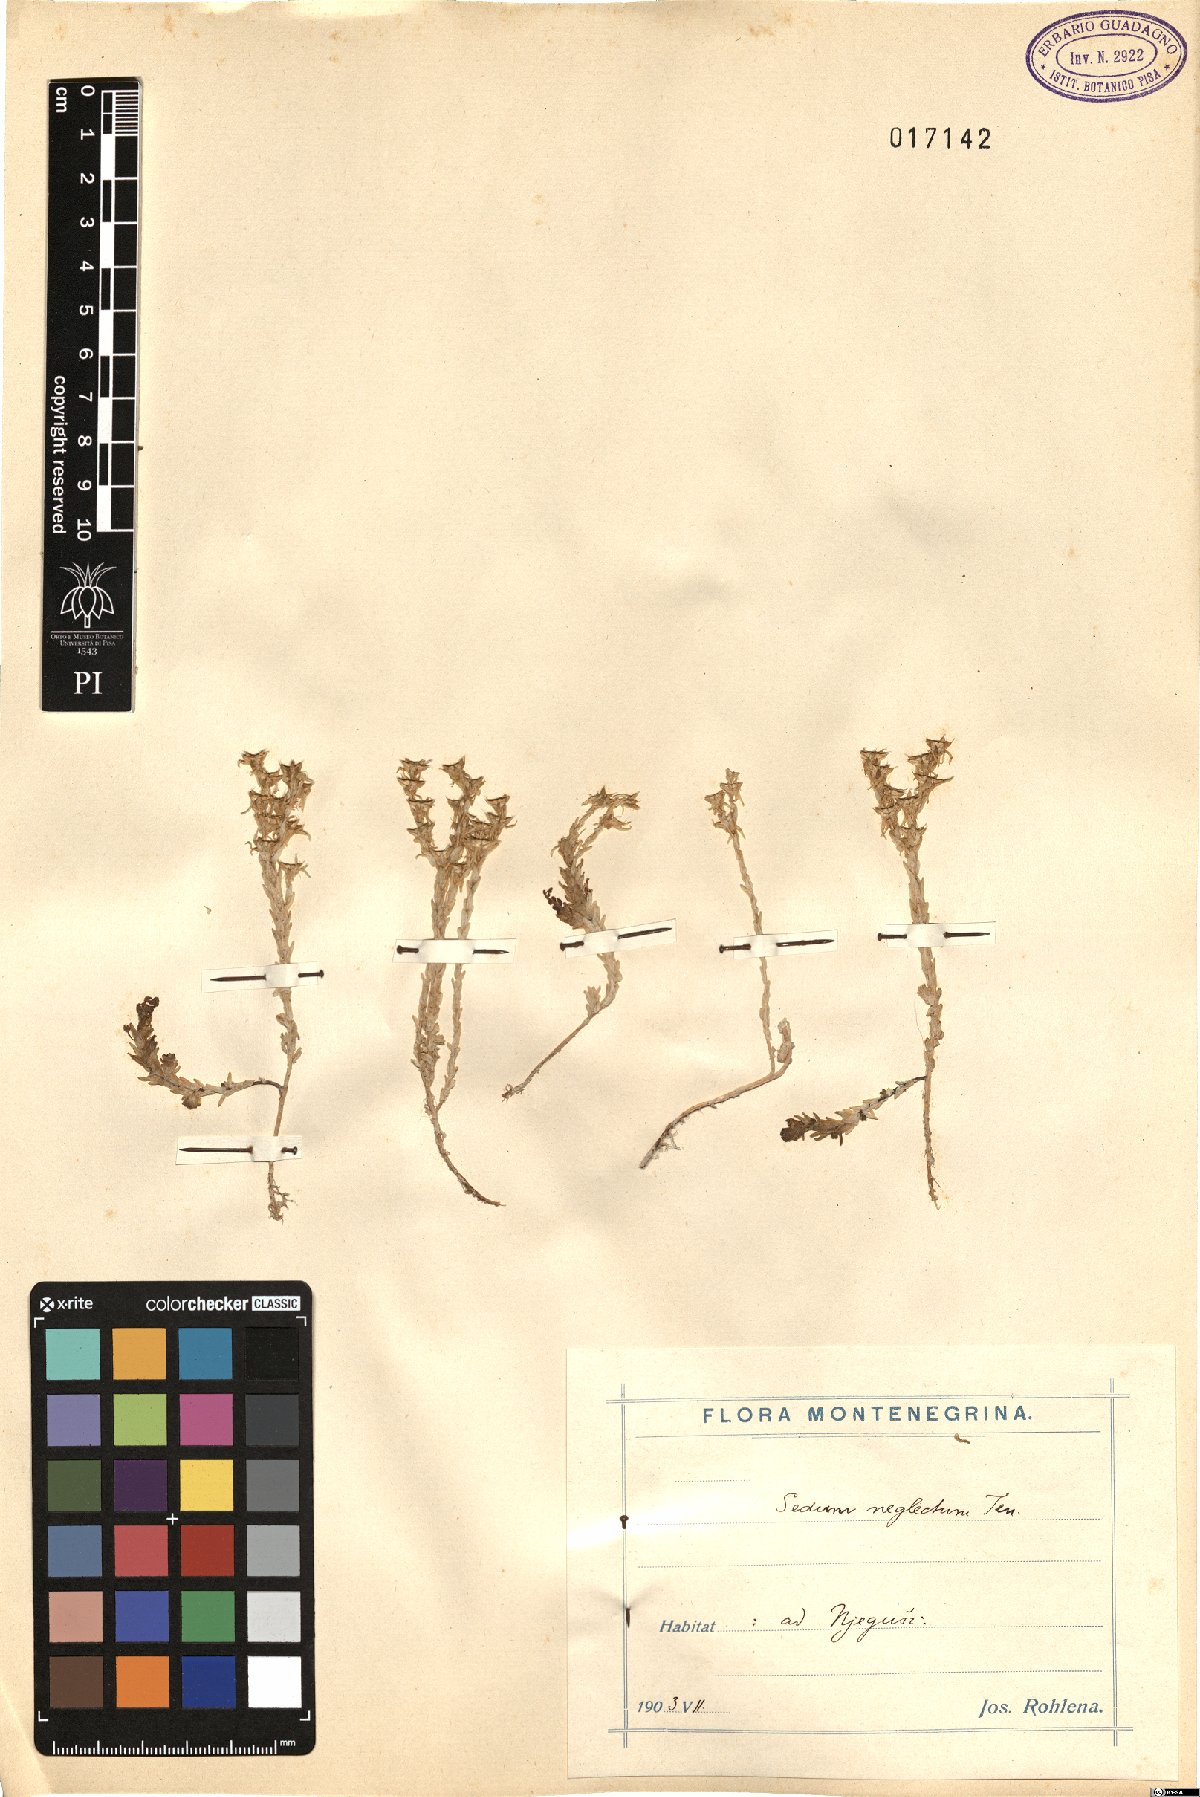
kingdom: Plantae
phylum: Tracheophyta
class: Magnoliopsida
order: Saxifragales
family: Crassulaceae
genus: Sedum
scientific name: Sedum acre
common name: Biting stonecrop
